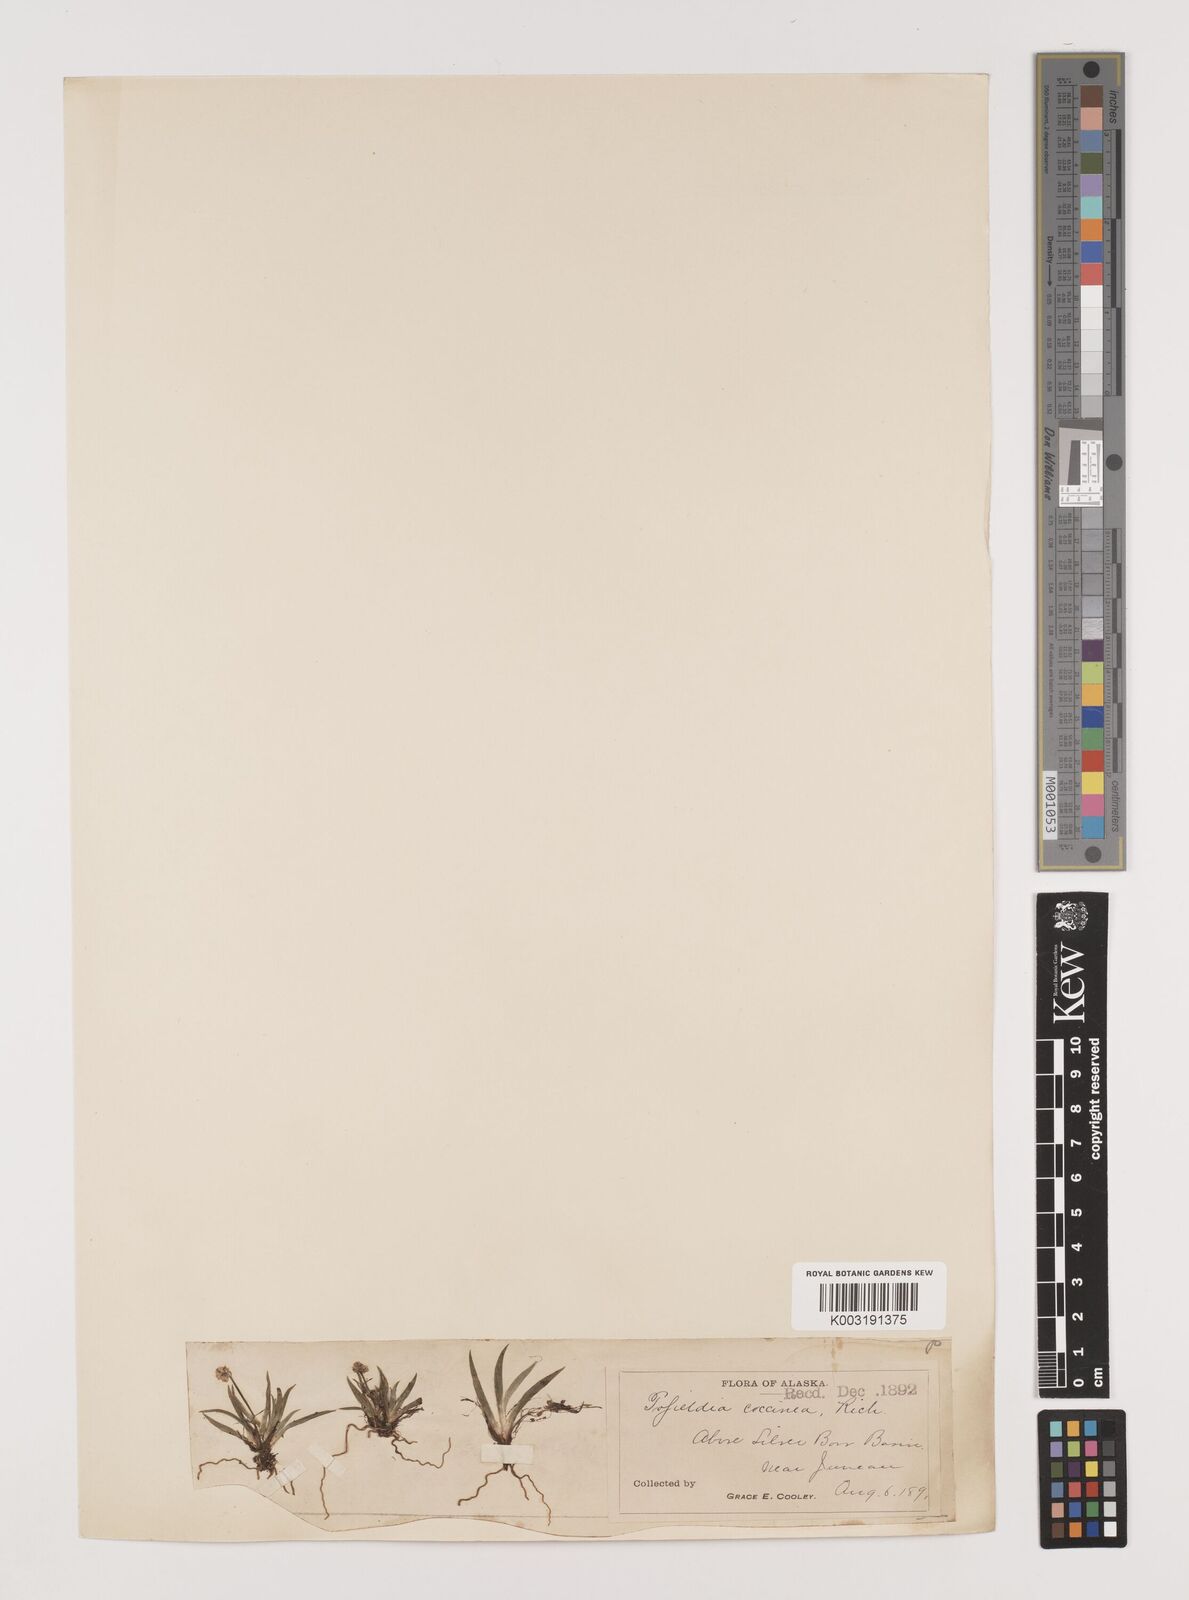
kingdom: Plantae
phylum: Tracheophyta
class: Liliopsida
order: Alismatales
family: Tofieldiaceae
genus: Tofieldia
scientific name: Tofieldia coccinea
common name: Northern false asphodel
